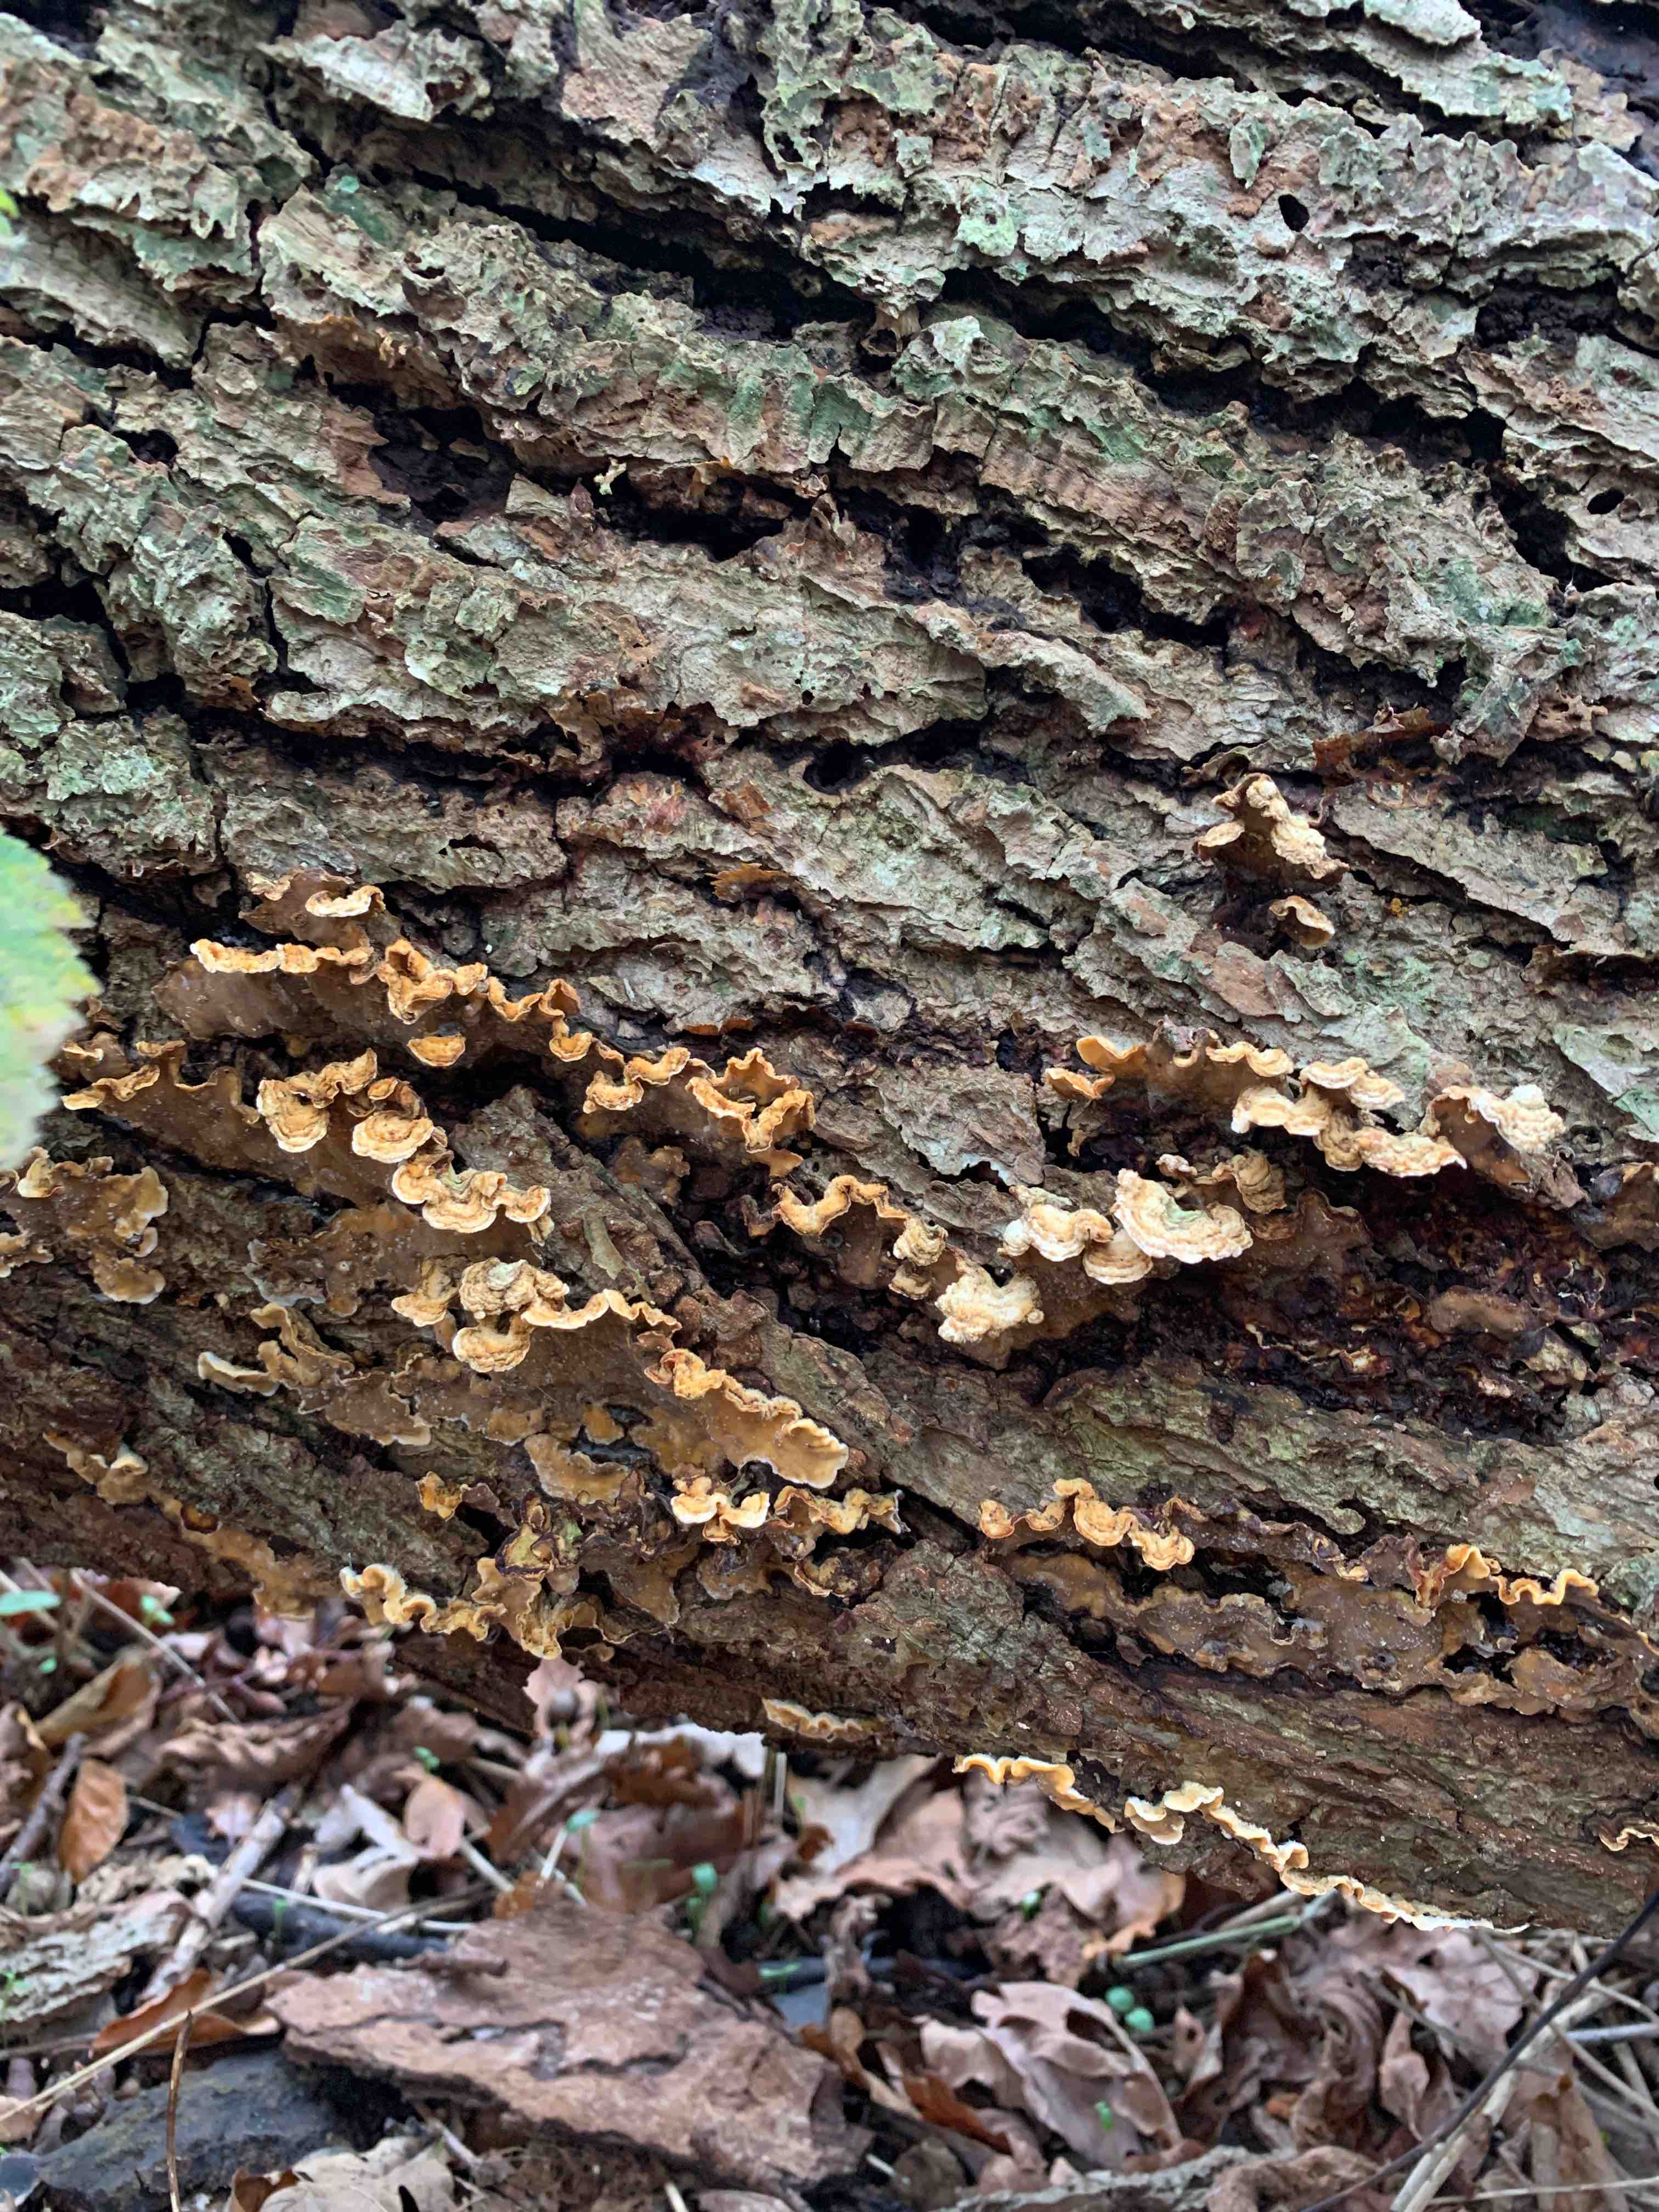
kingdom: Fungi
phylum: Basidiomycota
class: Agaricomycetes
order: Russulales
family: Stereaceae
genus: Stereum
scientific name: Stereum hirsutum
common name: håret lædersvamp
